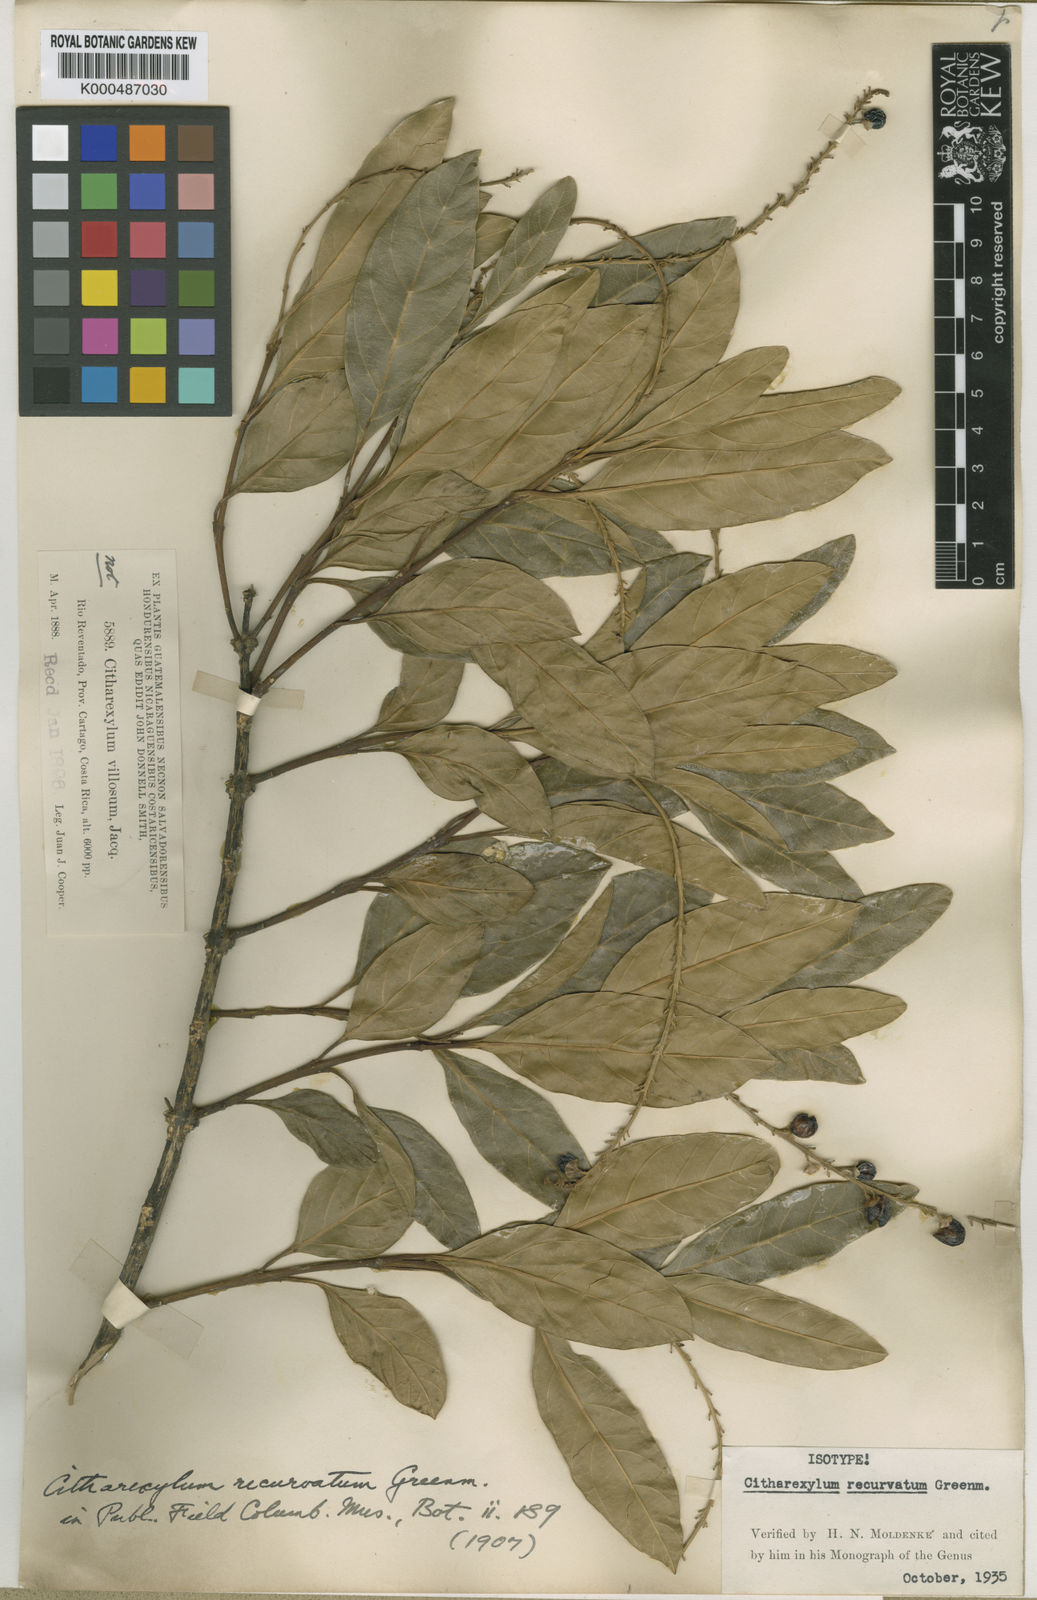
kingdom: Plantae
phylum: Tracheophyta
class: Magnoliopsida
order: Lamiales
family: Verbenaceae
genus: Citharexylum
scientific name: Citharexylum donnell-smithii
